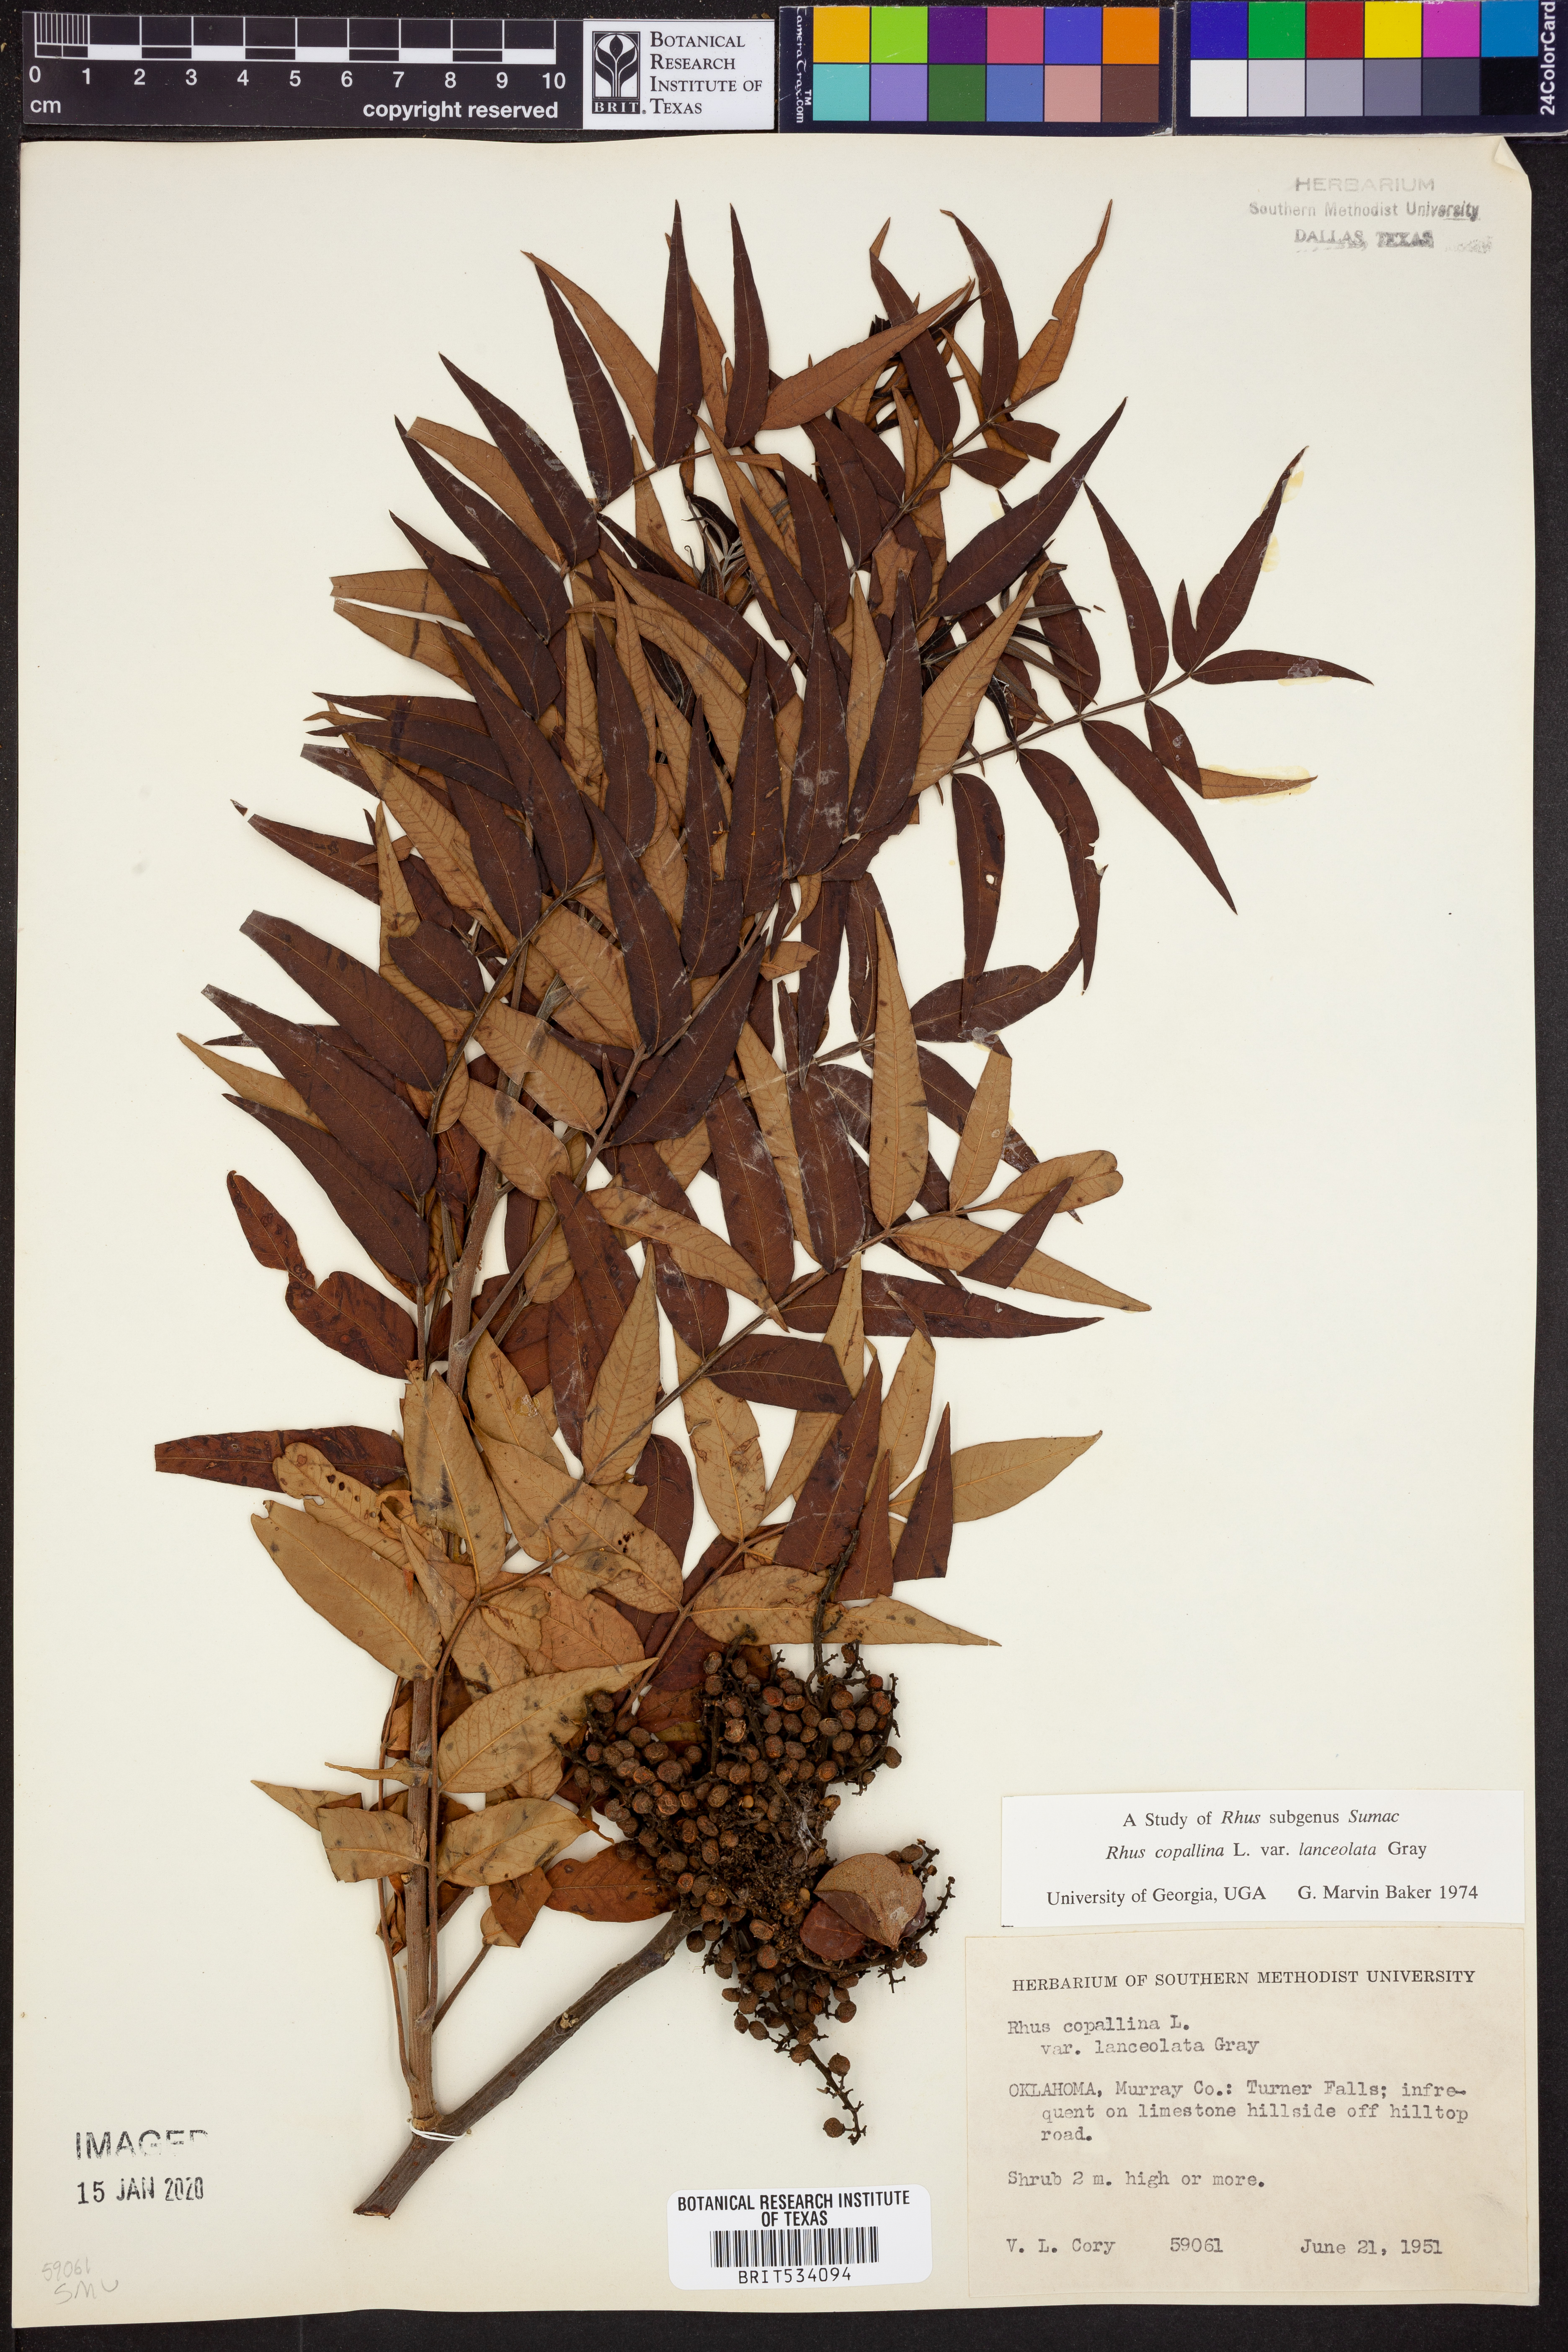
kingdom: Plantae
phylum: Tracheophyta
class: Magnoliopsida
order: Sapindales
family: Anacardiaceae
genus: Rhus
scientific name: Rhus lanceolata
